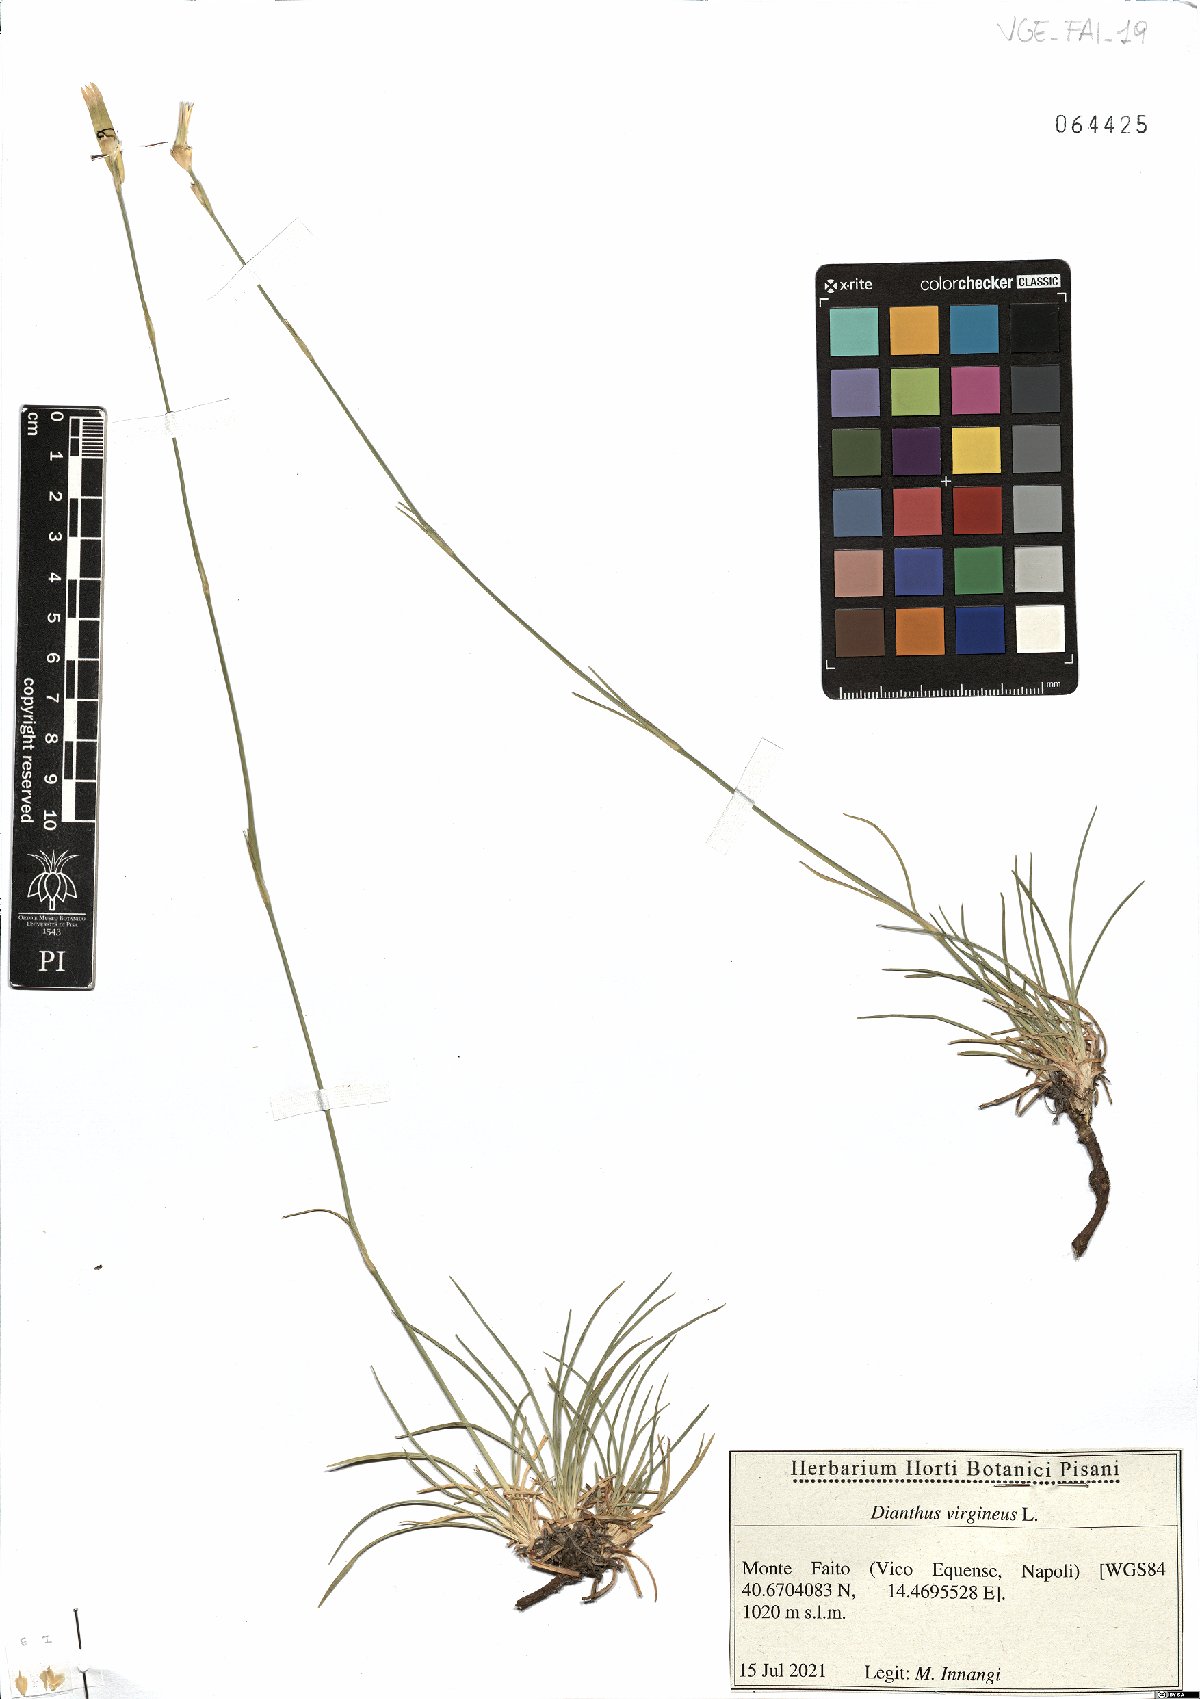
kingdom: Plantae
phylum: Tracheophyta
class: Magnoliopsida
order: Caryophyllales
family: Caryophyllaceae
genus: Dianthus
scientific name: Dianthus virgineus
